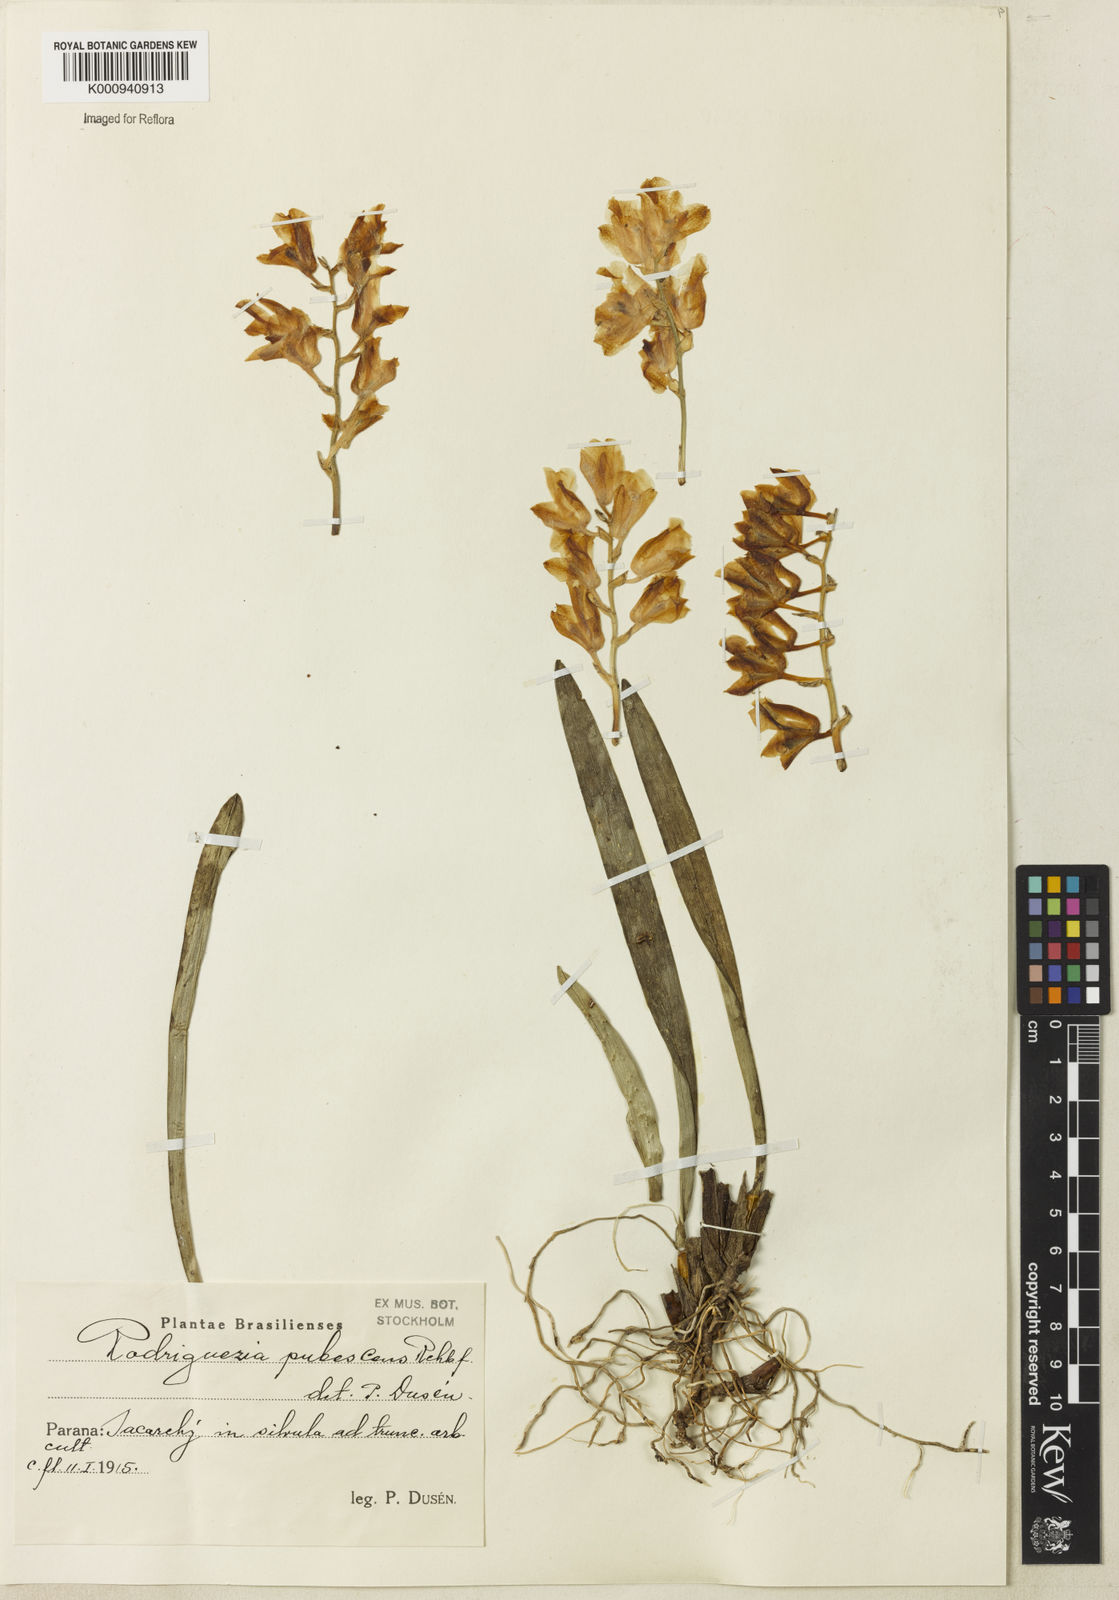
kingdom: Plantae
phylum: Tracheophyta
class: Liliopsida
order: Asparagales
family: Orchidaceae
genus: Rodriguezia
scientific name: Rodriguezia pubescens
